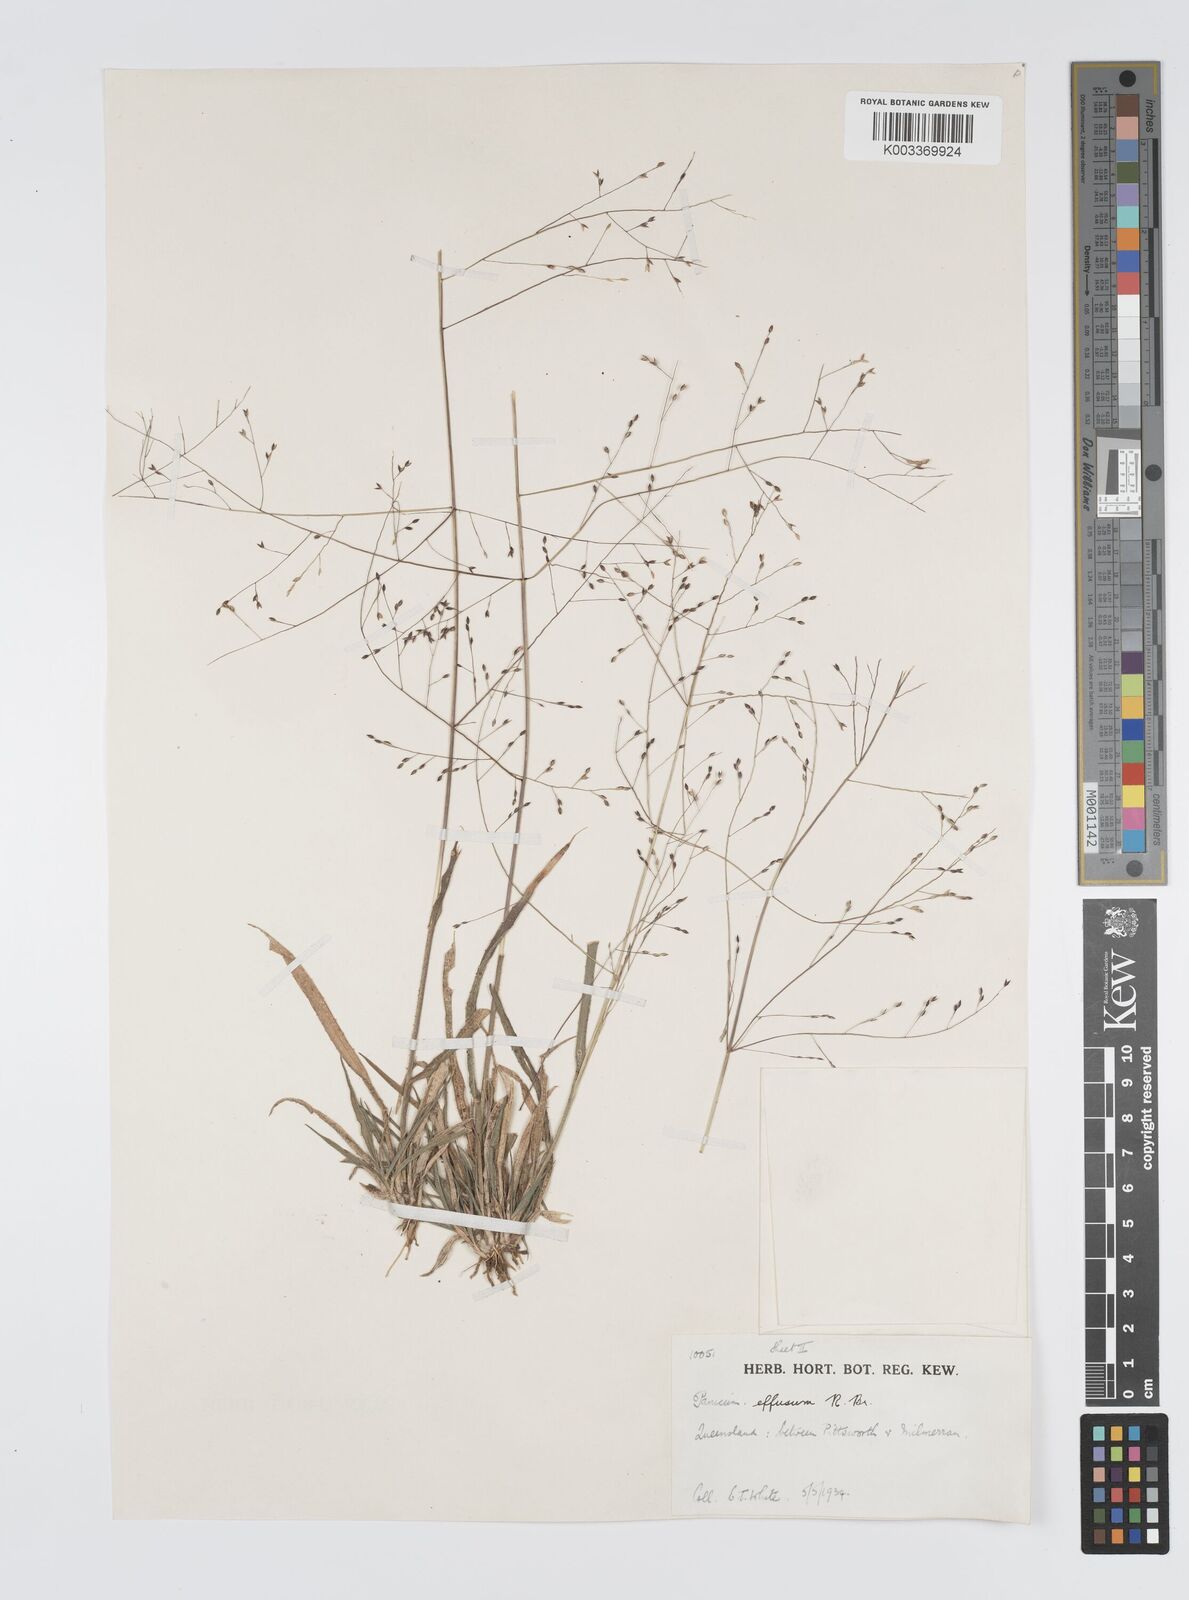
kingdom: Plantae
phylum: Tracheophyta
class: Liliopsida
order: Poales
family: Poaceae
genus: Panicum
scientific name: Panicum effusum
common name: Hairy panic grass
